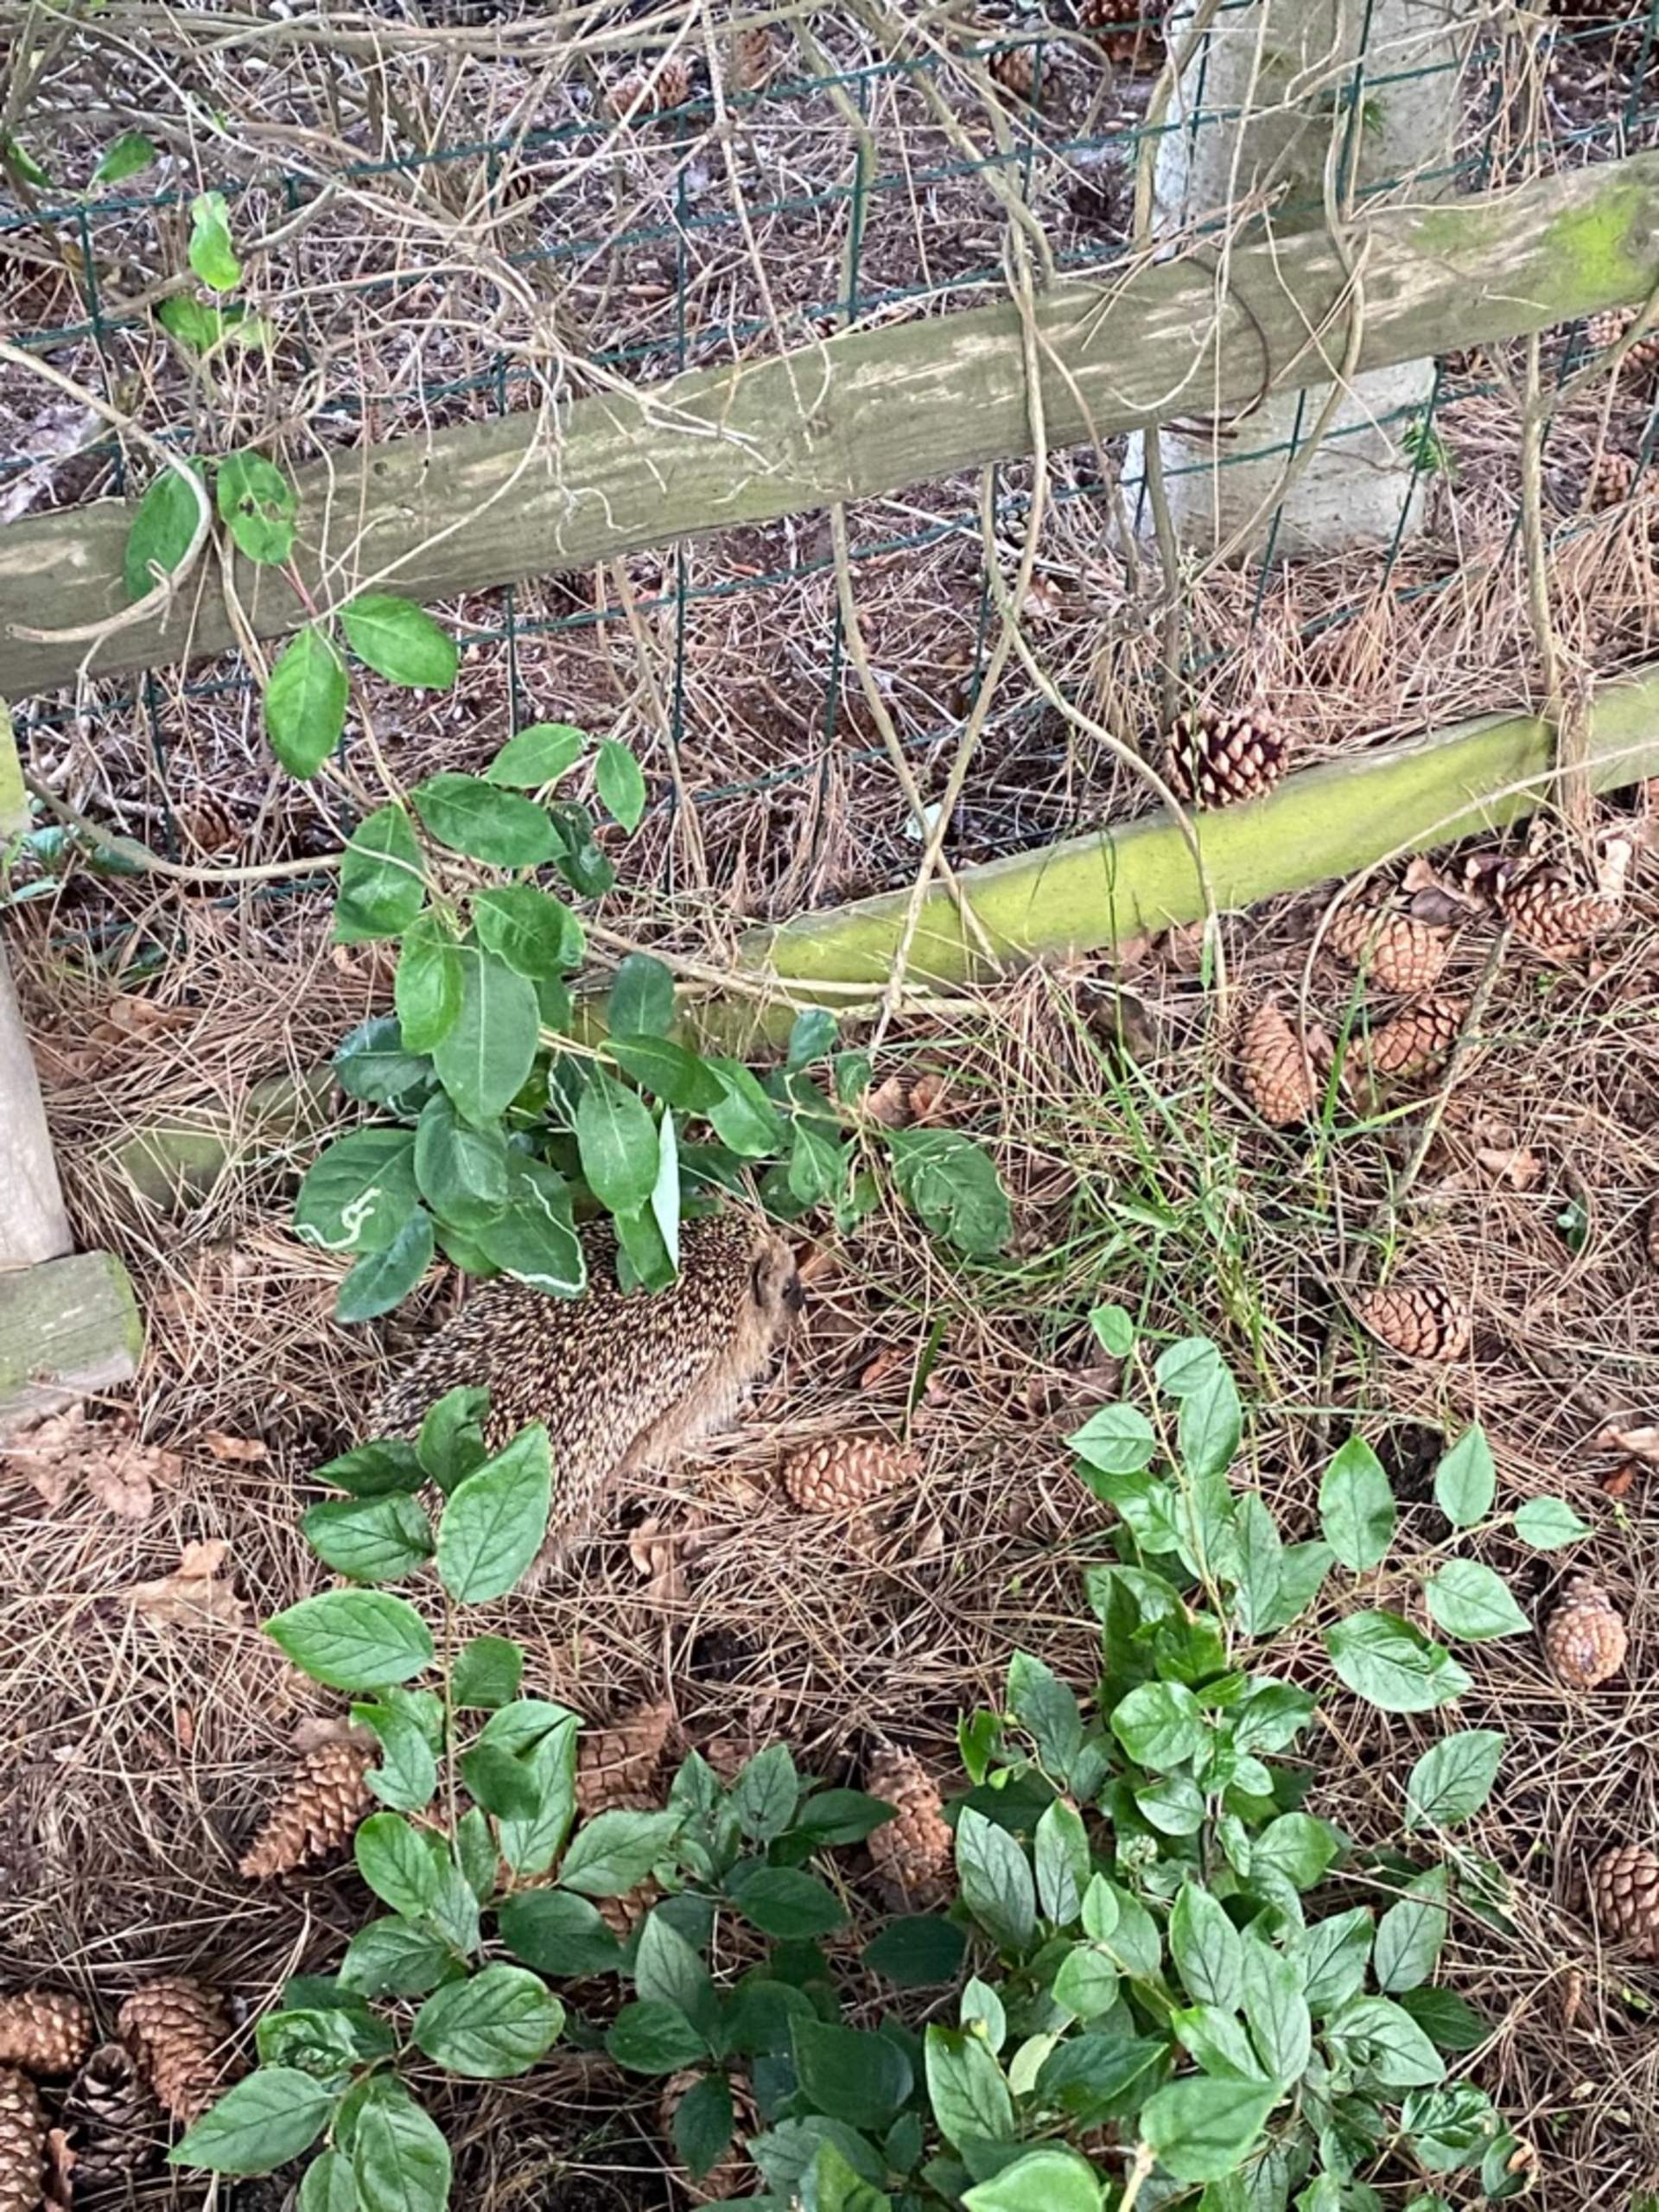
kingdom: Animalia
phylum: Chordata
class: Mammalia
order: Erinaceomorpha
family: Erinaceidae
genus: Erinaceus
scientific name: Erinaceus europaeus
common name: Pindsvin
